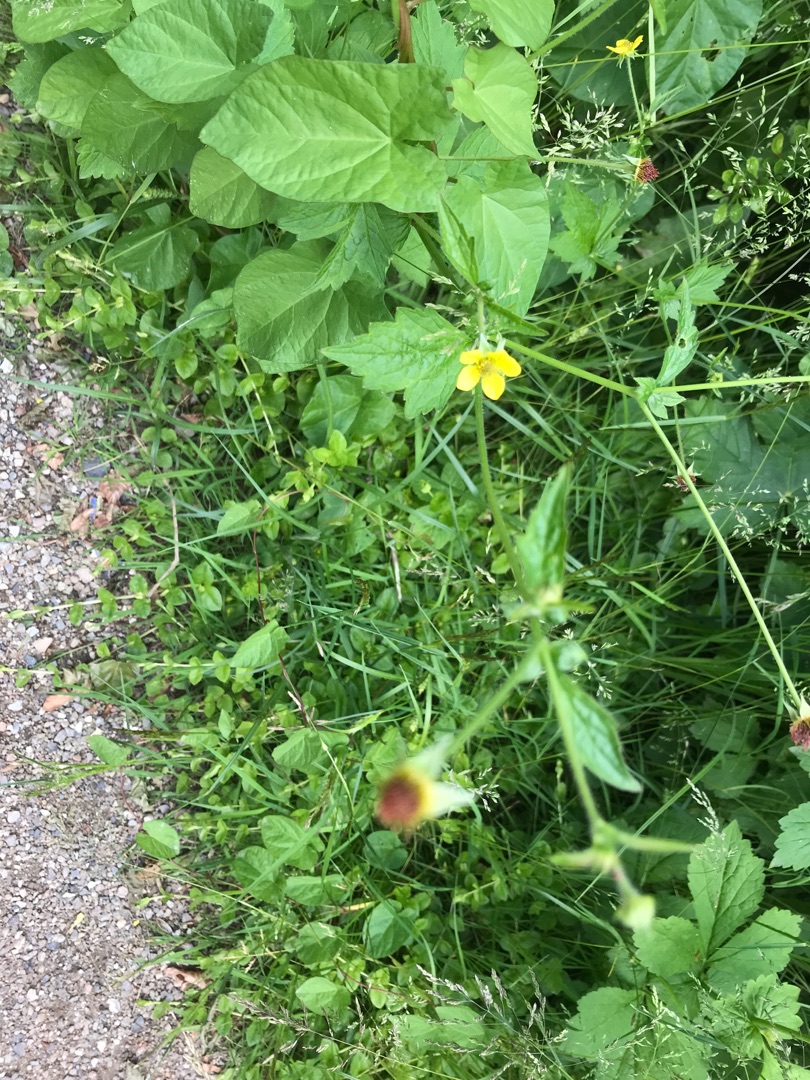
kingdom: Plantae
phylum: Tracheophyta
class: Magnoliopsida
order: Rosales
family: Rosaceae
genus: Geum
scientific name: Geum urbanum
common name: Feber-nellikerod
